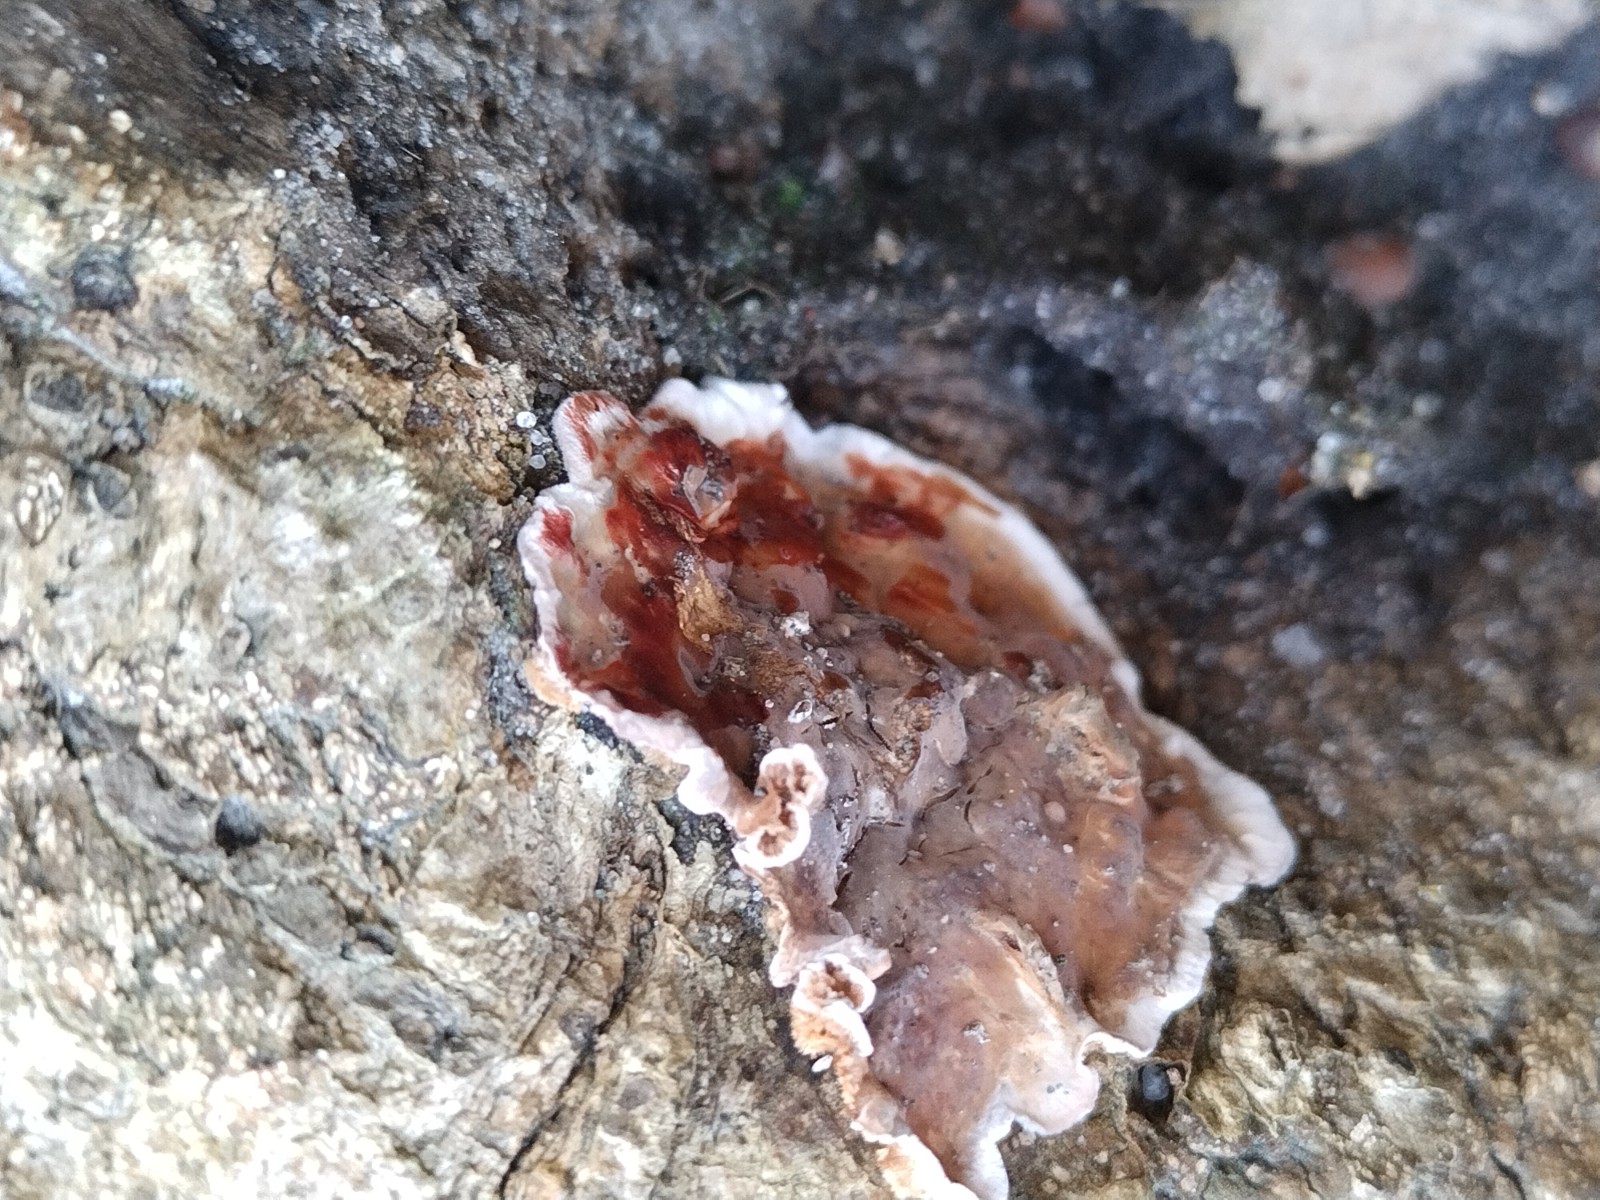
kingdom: Fungi
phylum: Basidiomycota
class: Agaricomycetes
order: Russulales
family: Stereaceae
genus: Stereum
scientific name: Stereum gausapatum
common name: tynd lædersvamp
